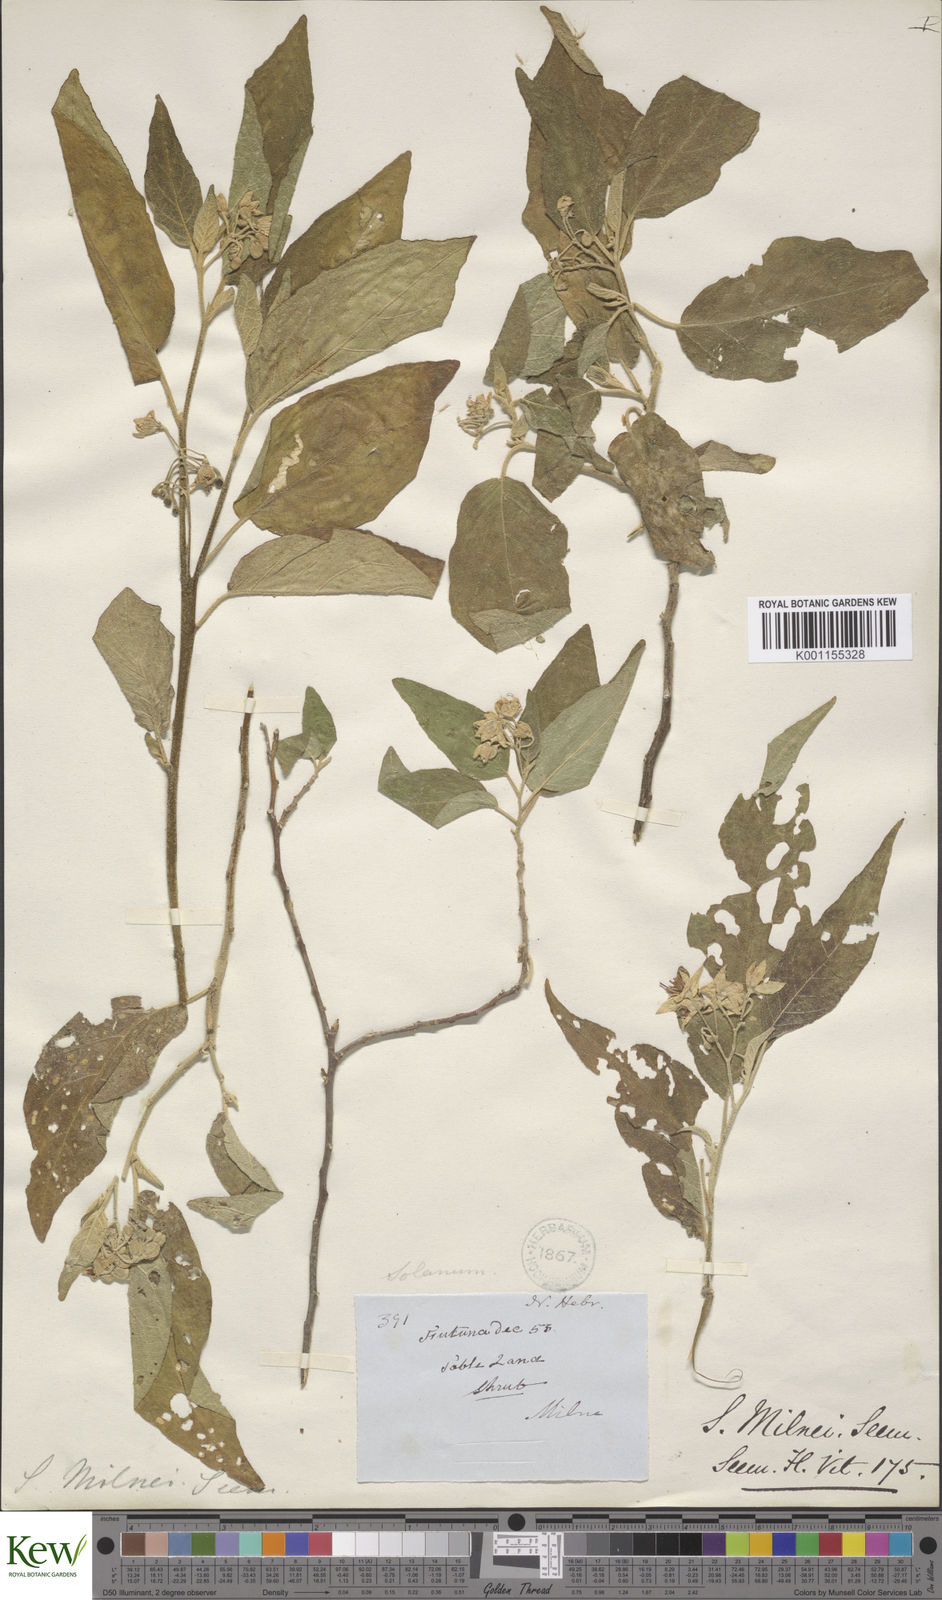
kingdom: Plantae
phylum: Tracheophyta
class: Magnoliopsida
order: Solanales
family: Solanaceae
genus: Solanum
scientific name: Solanum milnei
